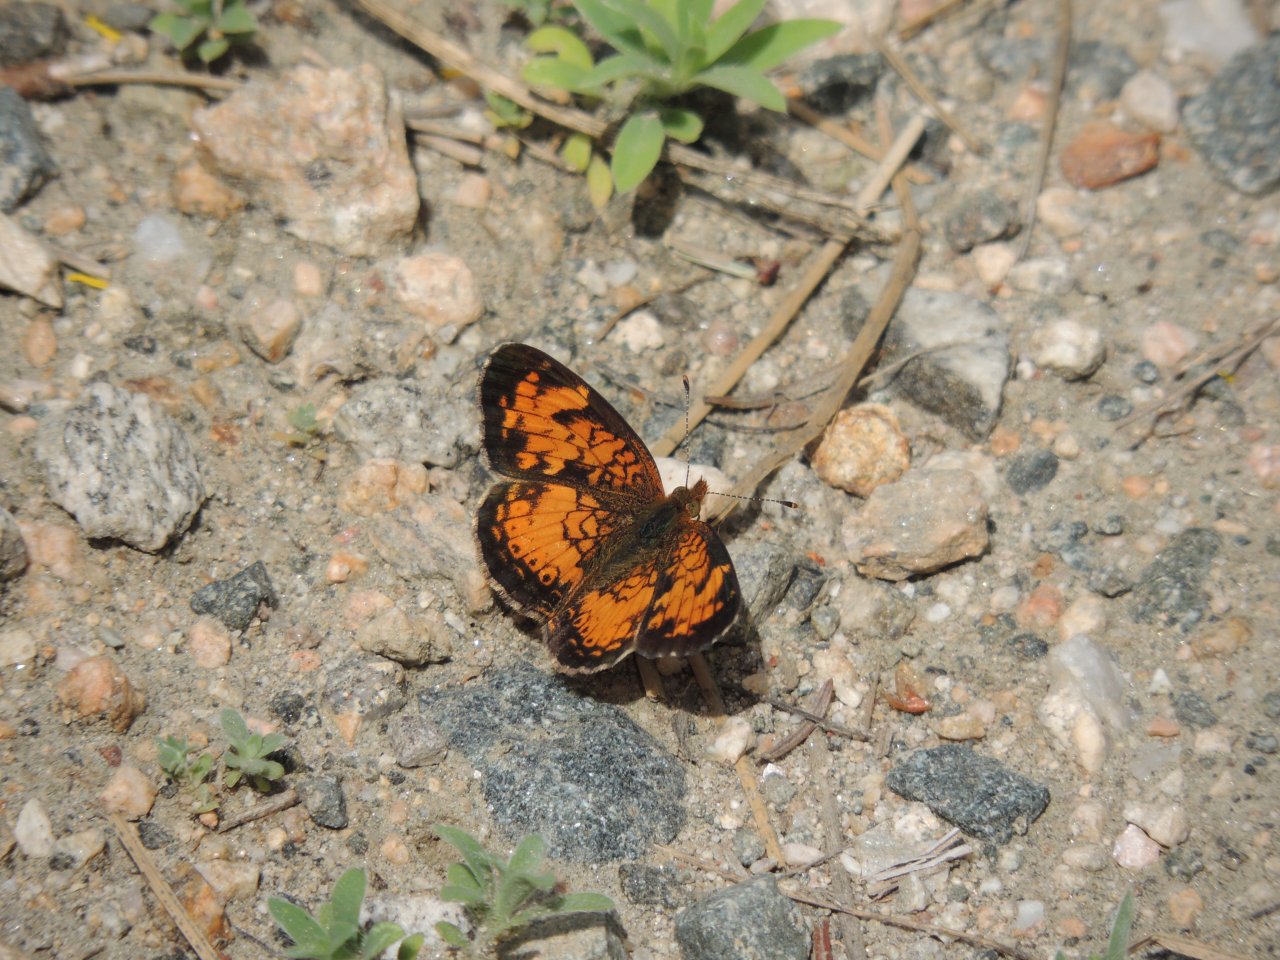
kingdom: Animalia
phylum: Arthropoda
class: Insecta
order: Lepidoptera
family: Nymphalidae
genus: Phyciodes
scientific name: Phyciodes tharos
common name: Northern Crescent
